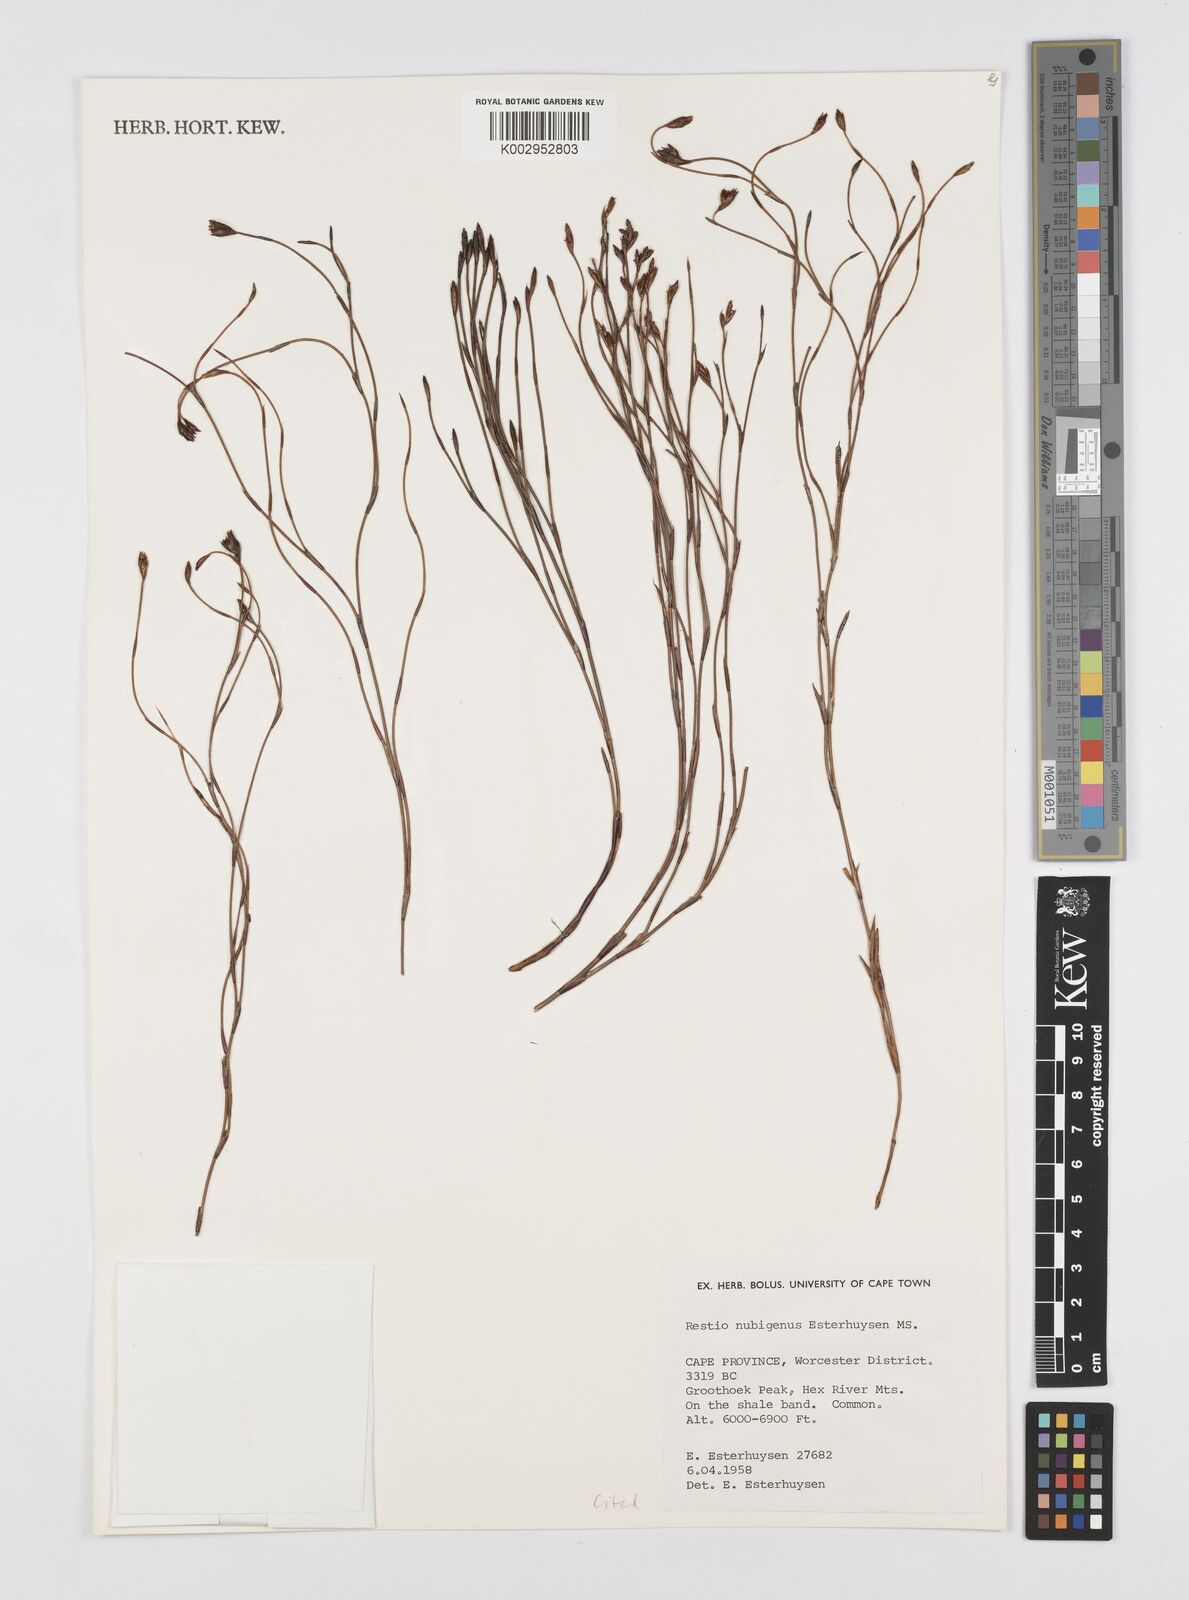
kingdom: Plantae
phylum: Tracheophyta
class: Liliopsida
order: Poales
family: Restionaceae
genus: Restio
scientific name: Restio nubigenus
